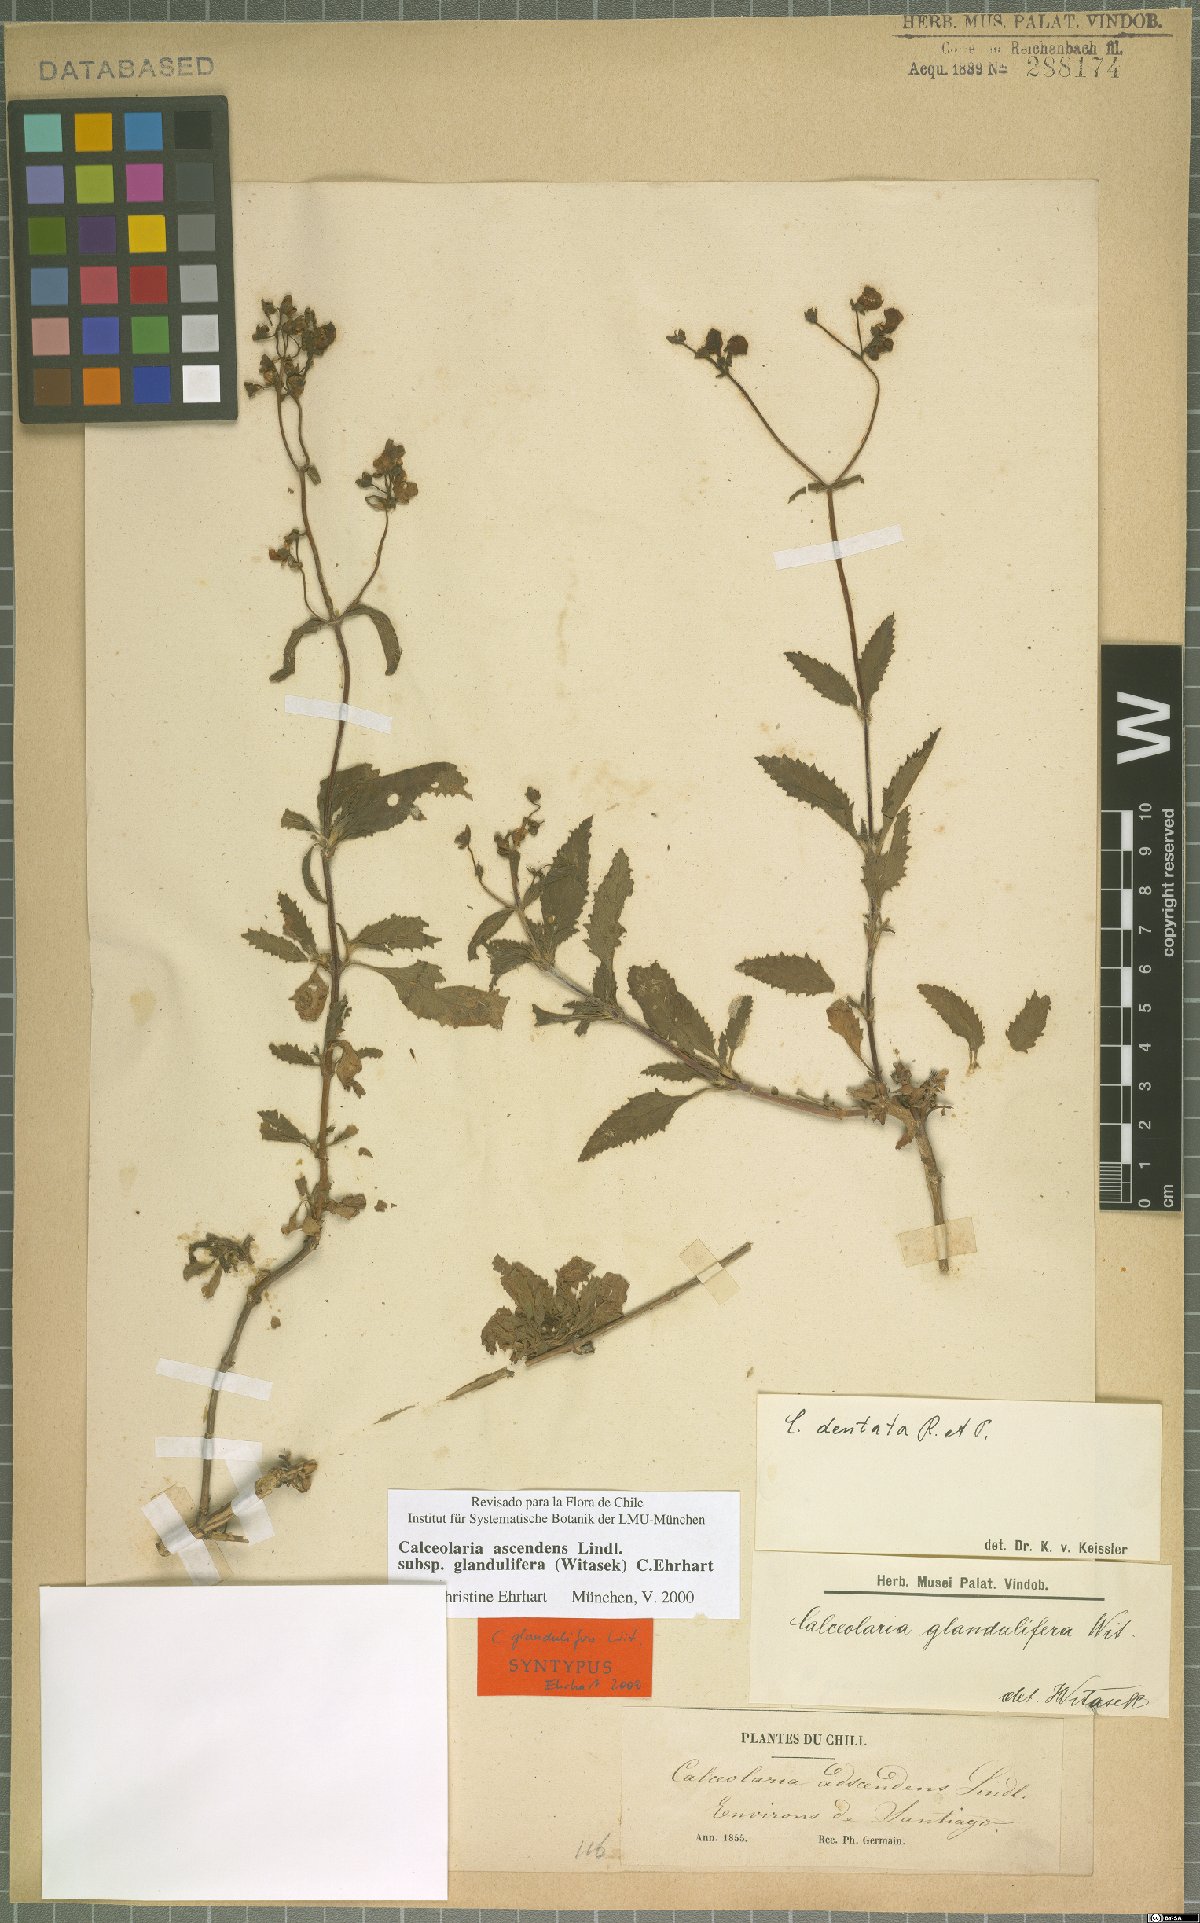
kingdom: Plantae
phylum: Tracheophyta
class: Magnoliopsida
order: Lamiales
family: Calceolariaceae
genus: Calceolaria
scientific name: Calceolaria ascendens
